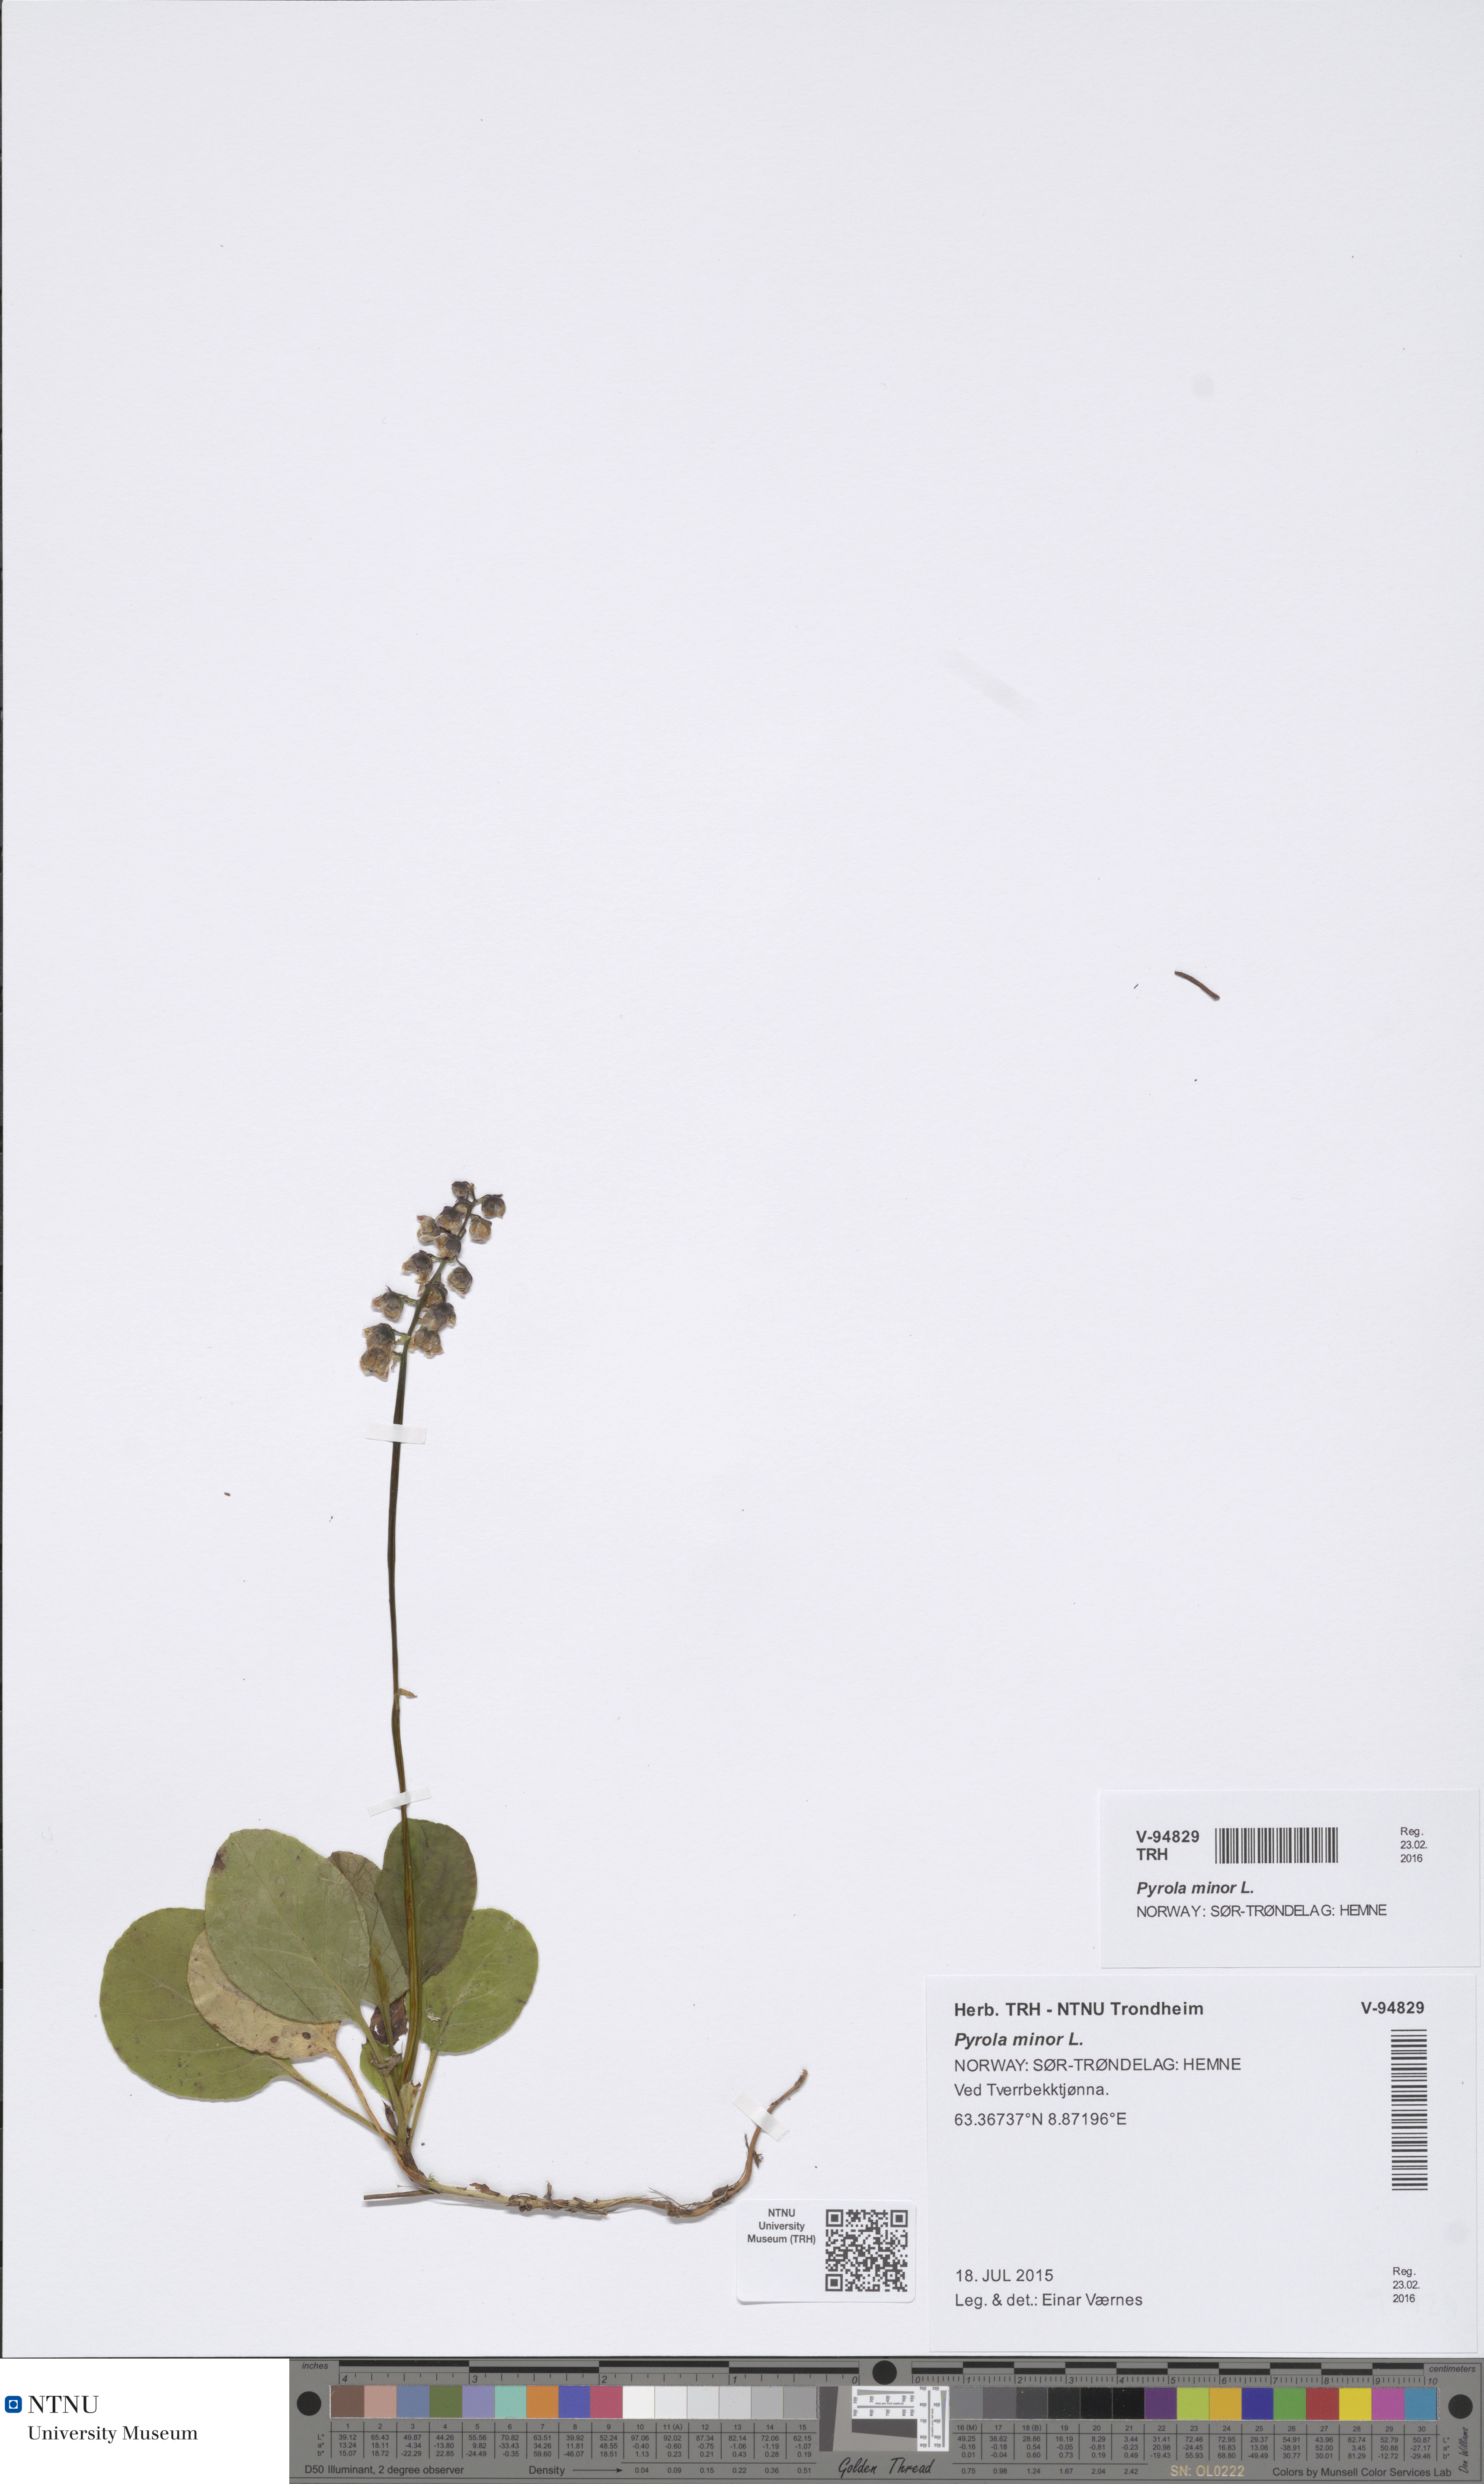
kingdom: Plantae
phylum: Tracheophyta
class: Magnoliopsida
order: Ericales
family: Ericaceae
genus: Pyrola
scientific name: Pyrola minor
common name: Common wintergreen
